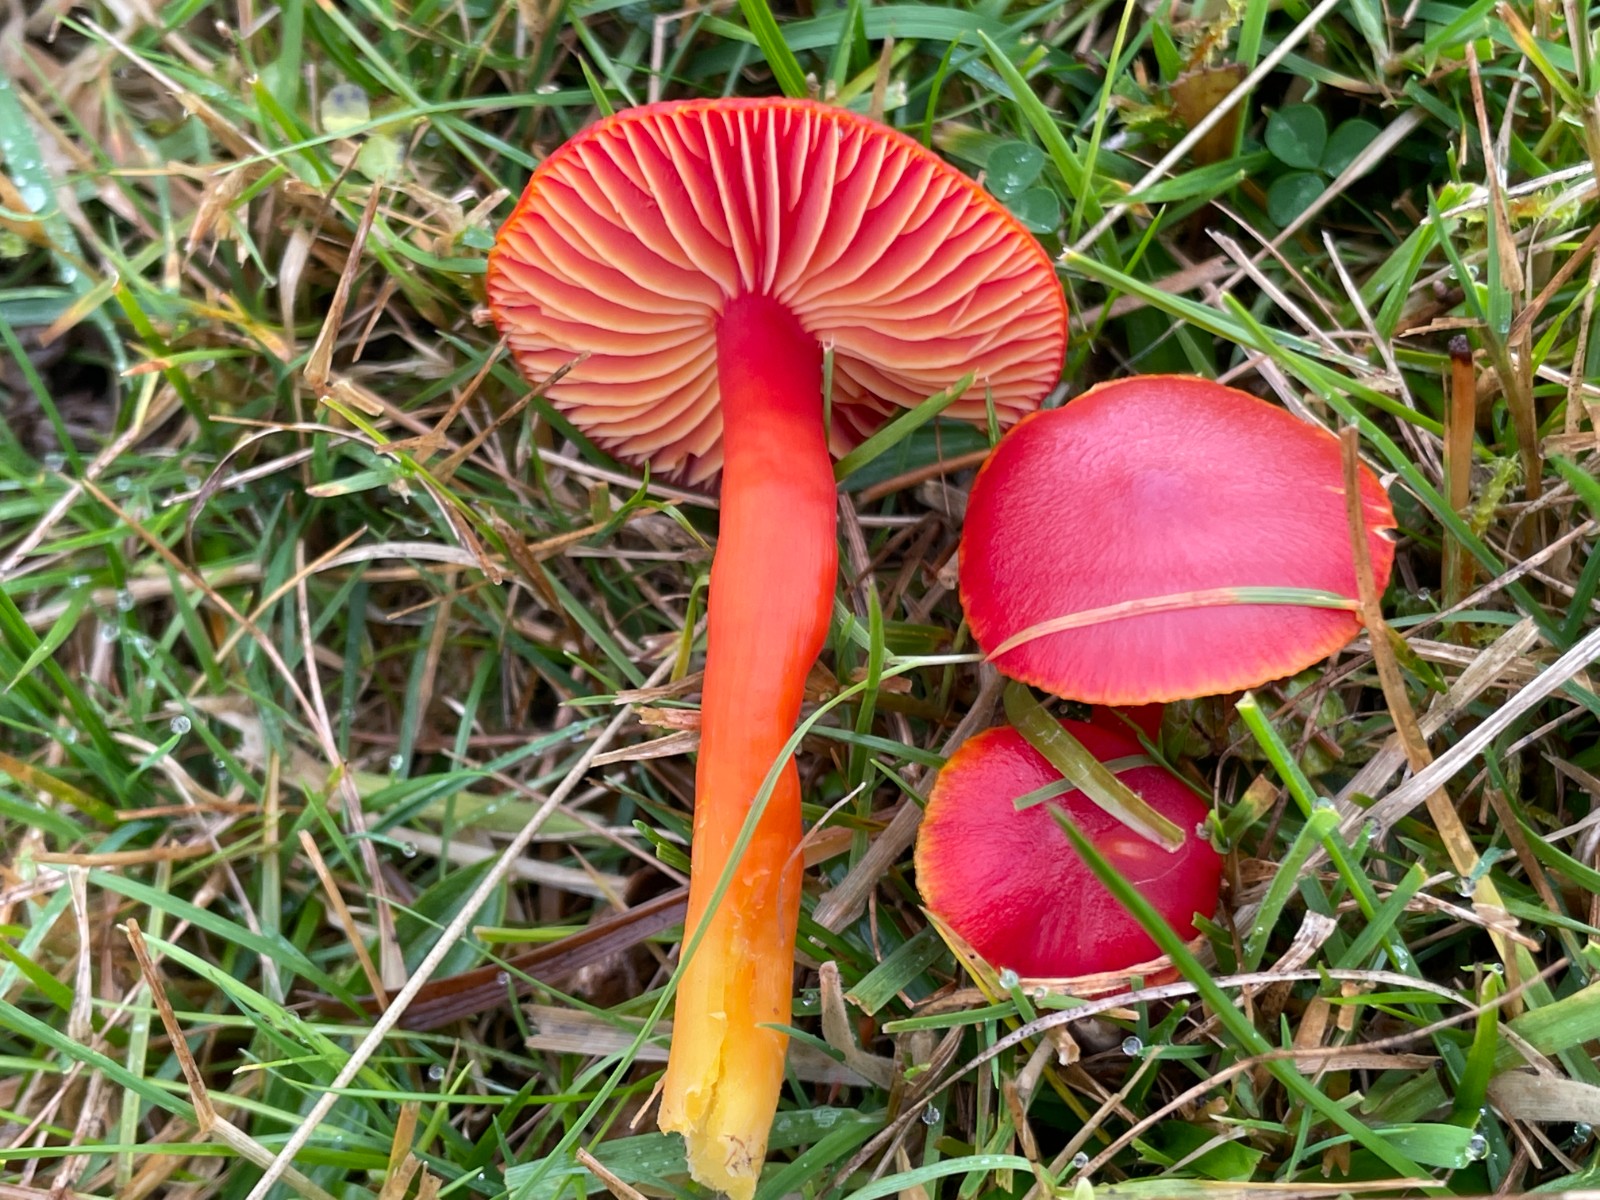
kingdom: Fungi
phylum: Basidiomycota
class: Agaricomycetes
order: Agaricales
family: Hygrophoraceae
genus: Hygrocybe
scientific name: Hygrocybe coccinea
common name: cinnober-vokshat
